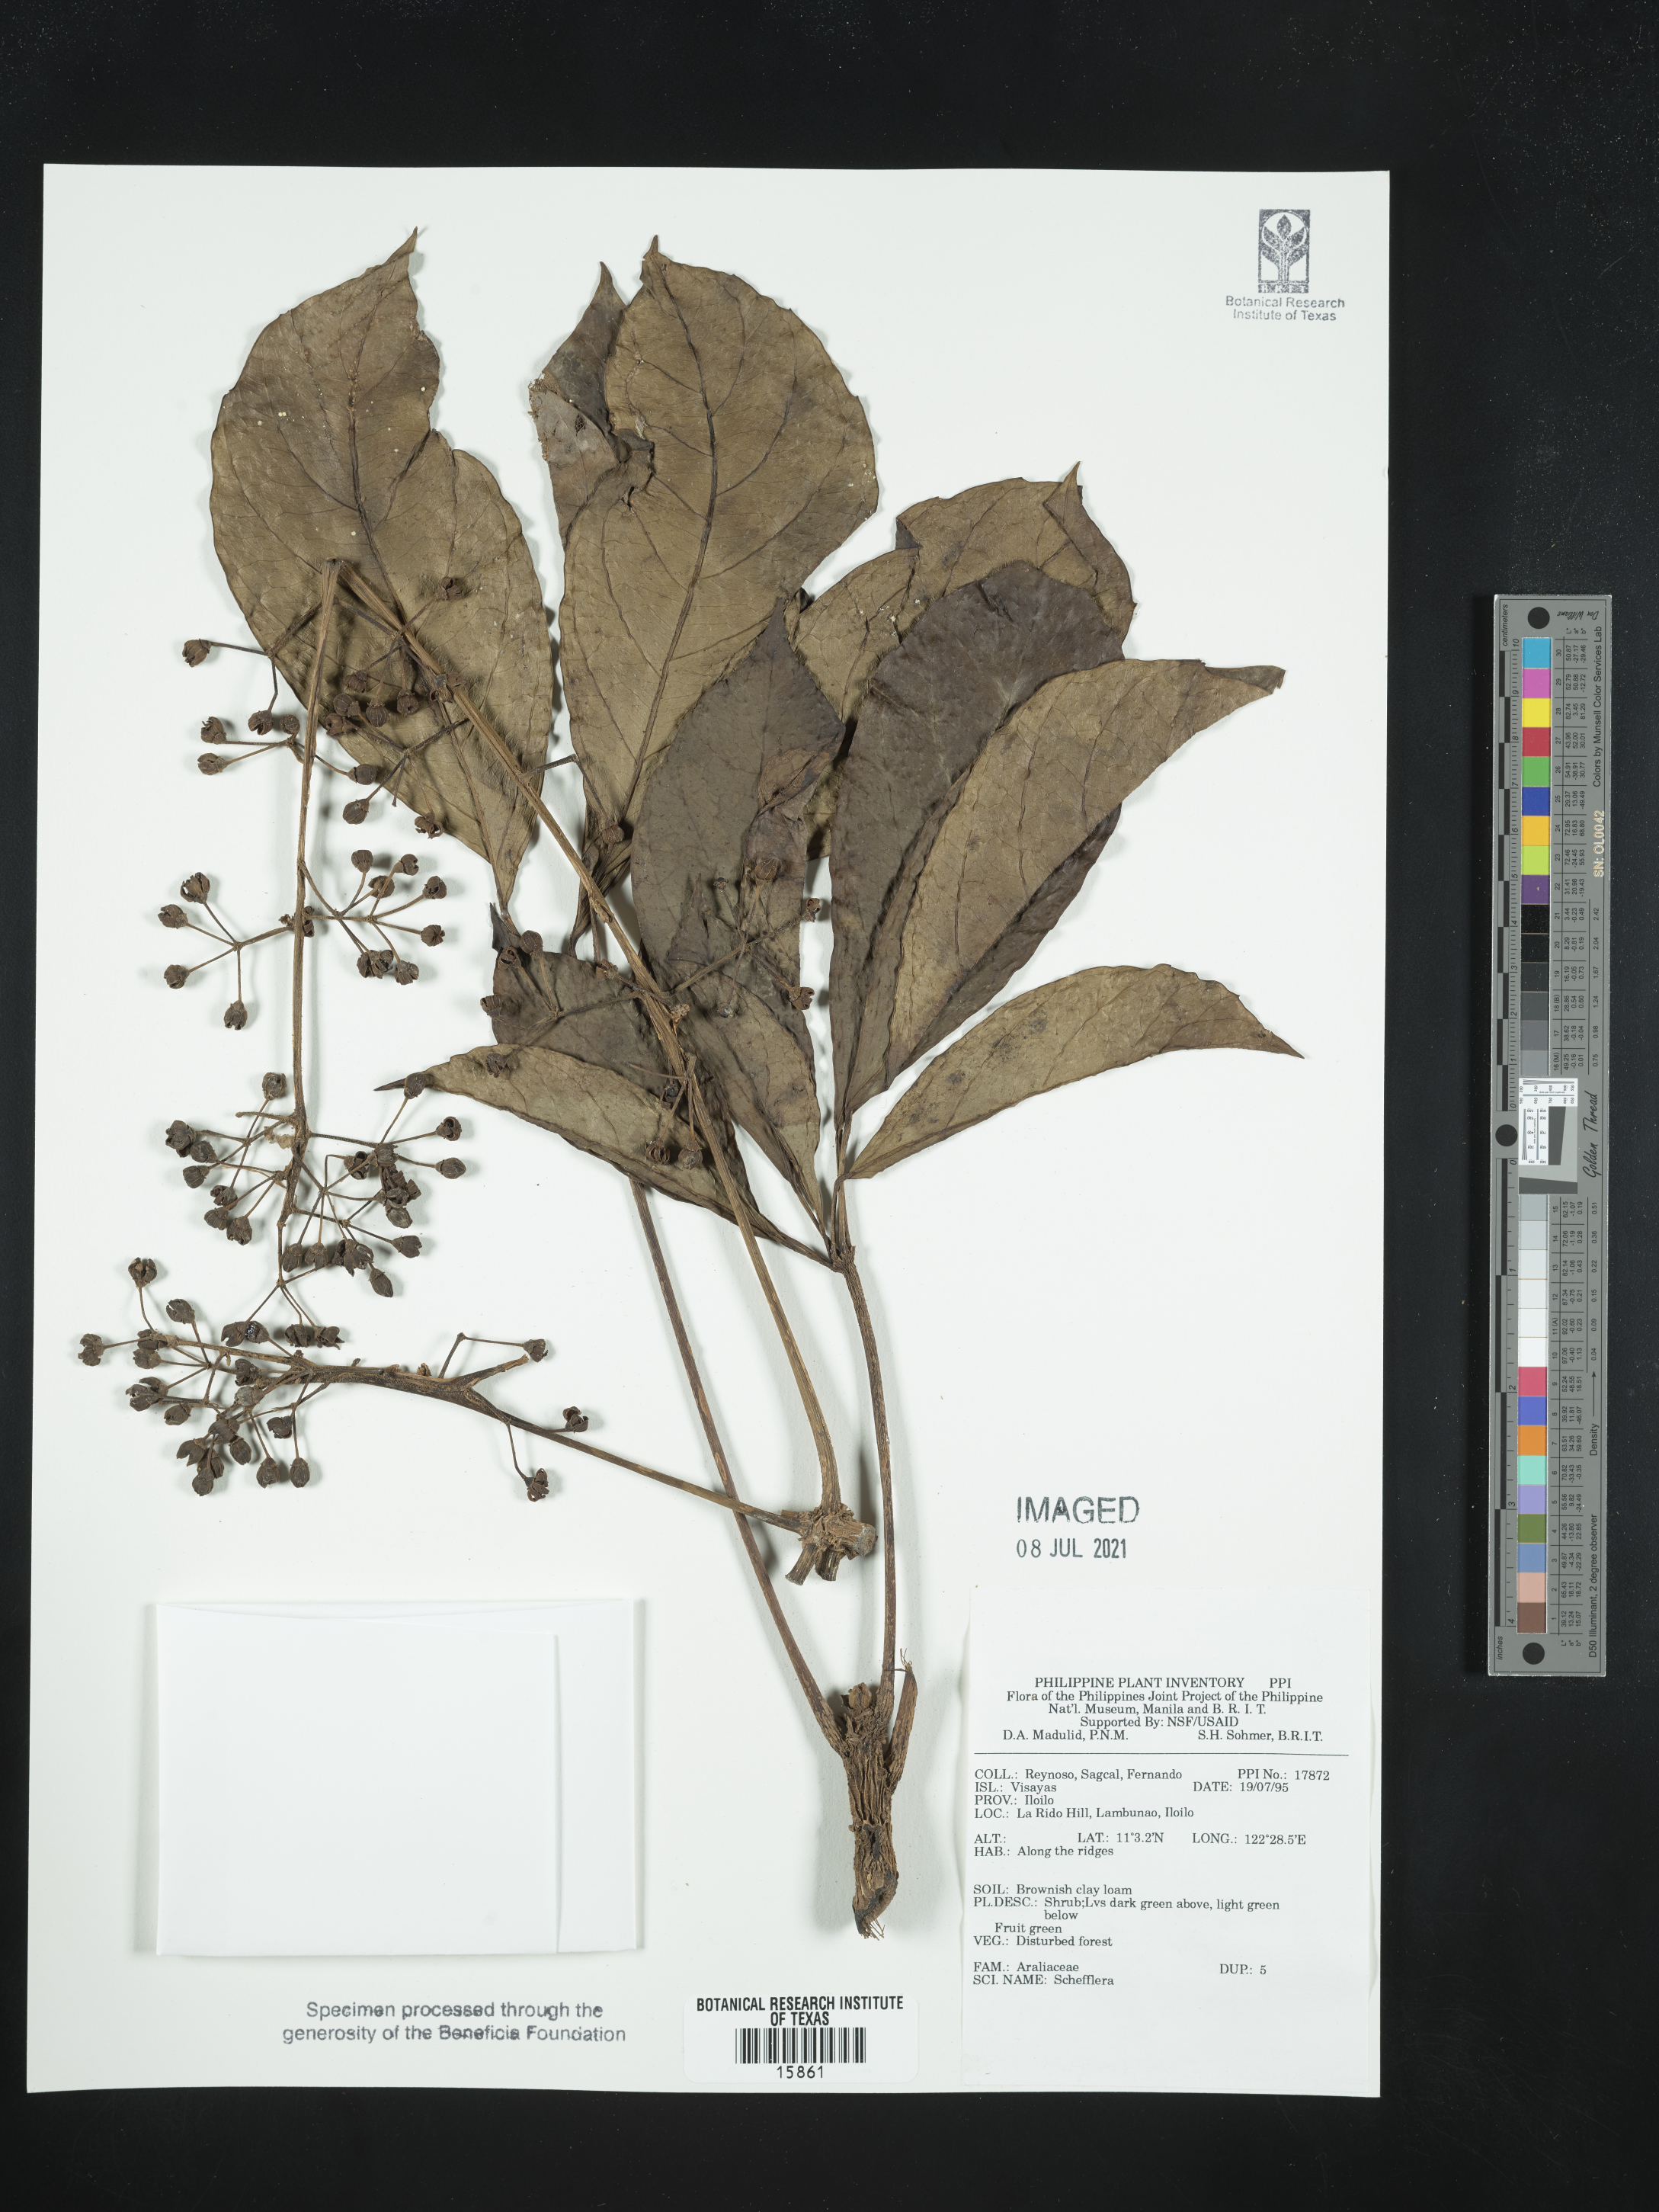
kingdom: Plantae
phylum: Tracheophyta
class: Magnoliopsida
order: Apiales
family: Araliaceae
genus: Schefflera
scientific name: Schefflera
